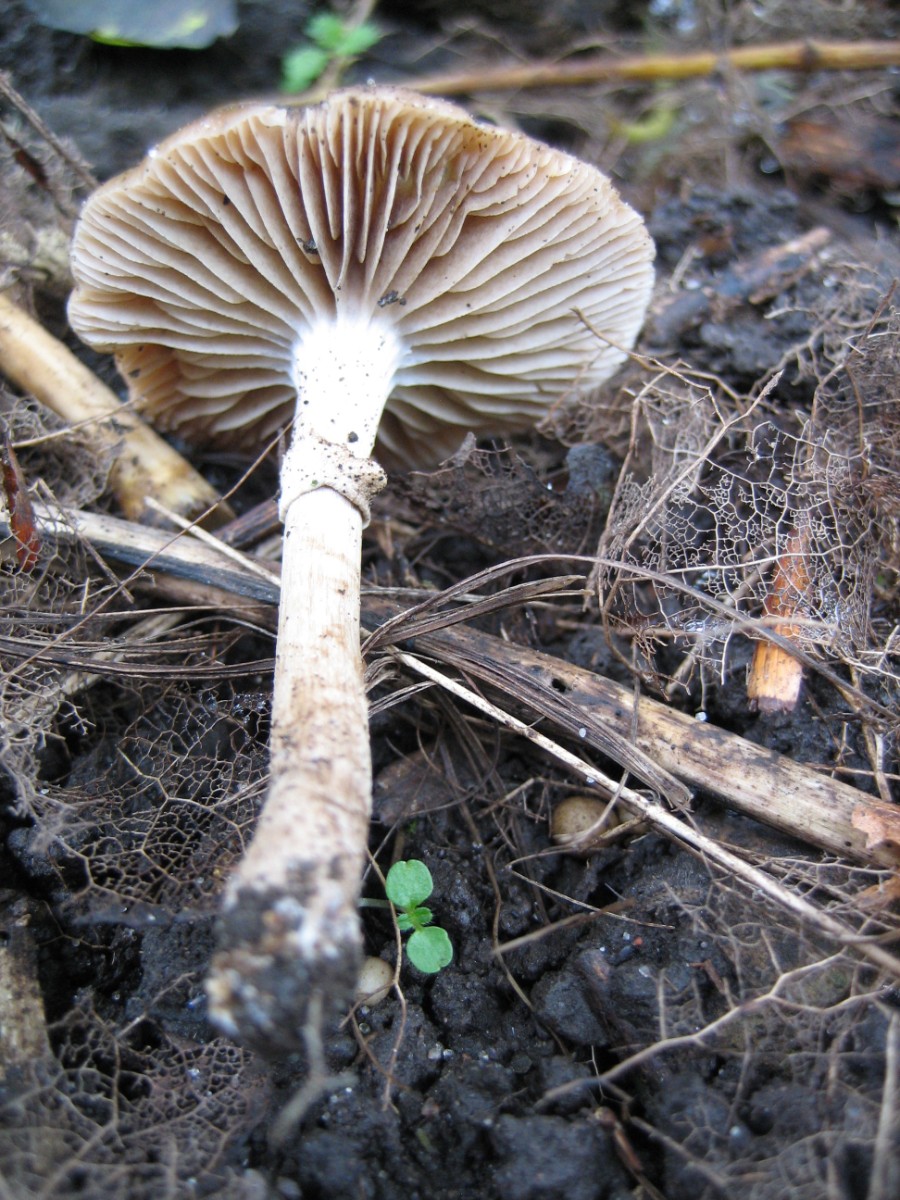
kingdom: Fungi
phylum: Basidiomycota
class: Agaricomycetes
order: Agaricales
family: Tubariaceae
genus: Cyclocybe
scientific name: Cyclocybe erebia
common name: mørk agerhat
